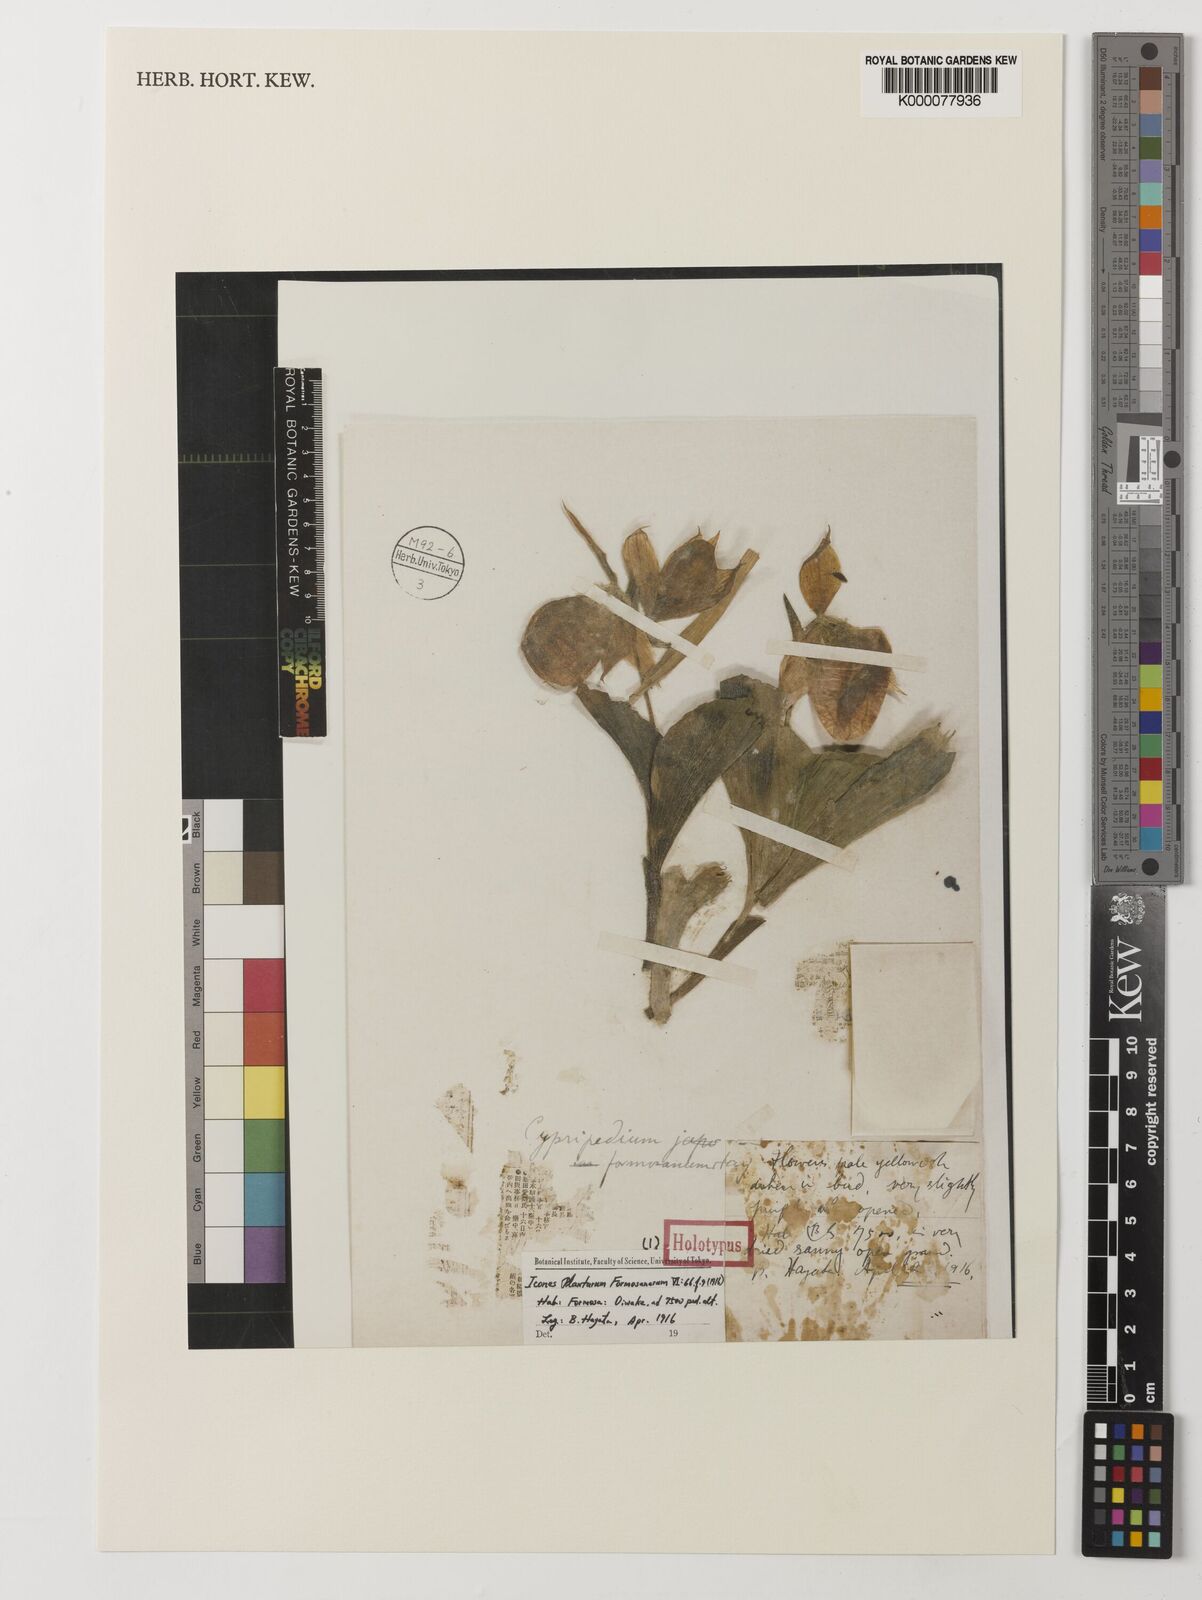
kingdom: Plantae
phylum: Tracheophyta
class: Liliopsida
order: Asparagales
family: Orchidaceae
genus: Cypripedium
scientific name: Cypripedium formosanum
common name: Formosa's lady's slipper
